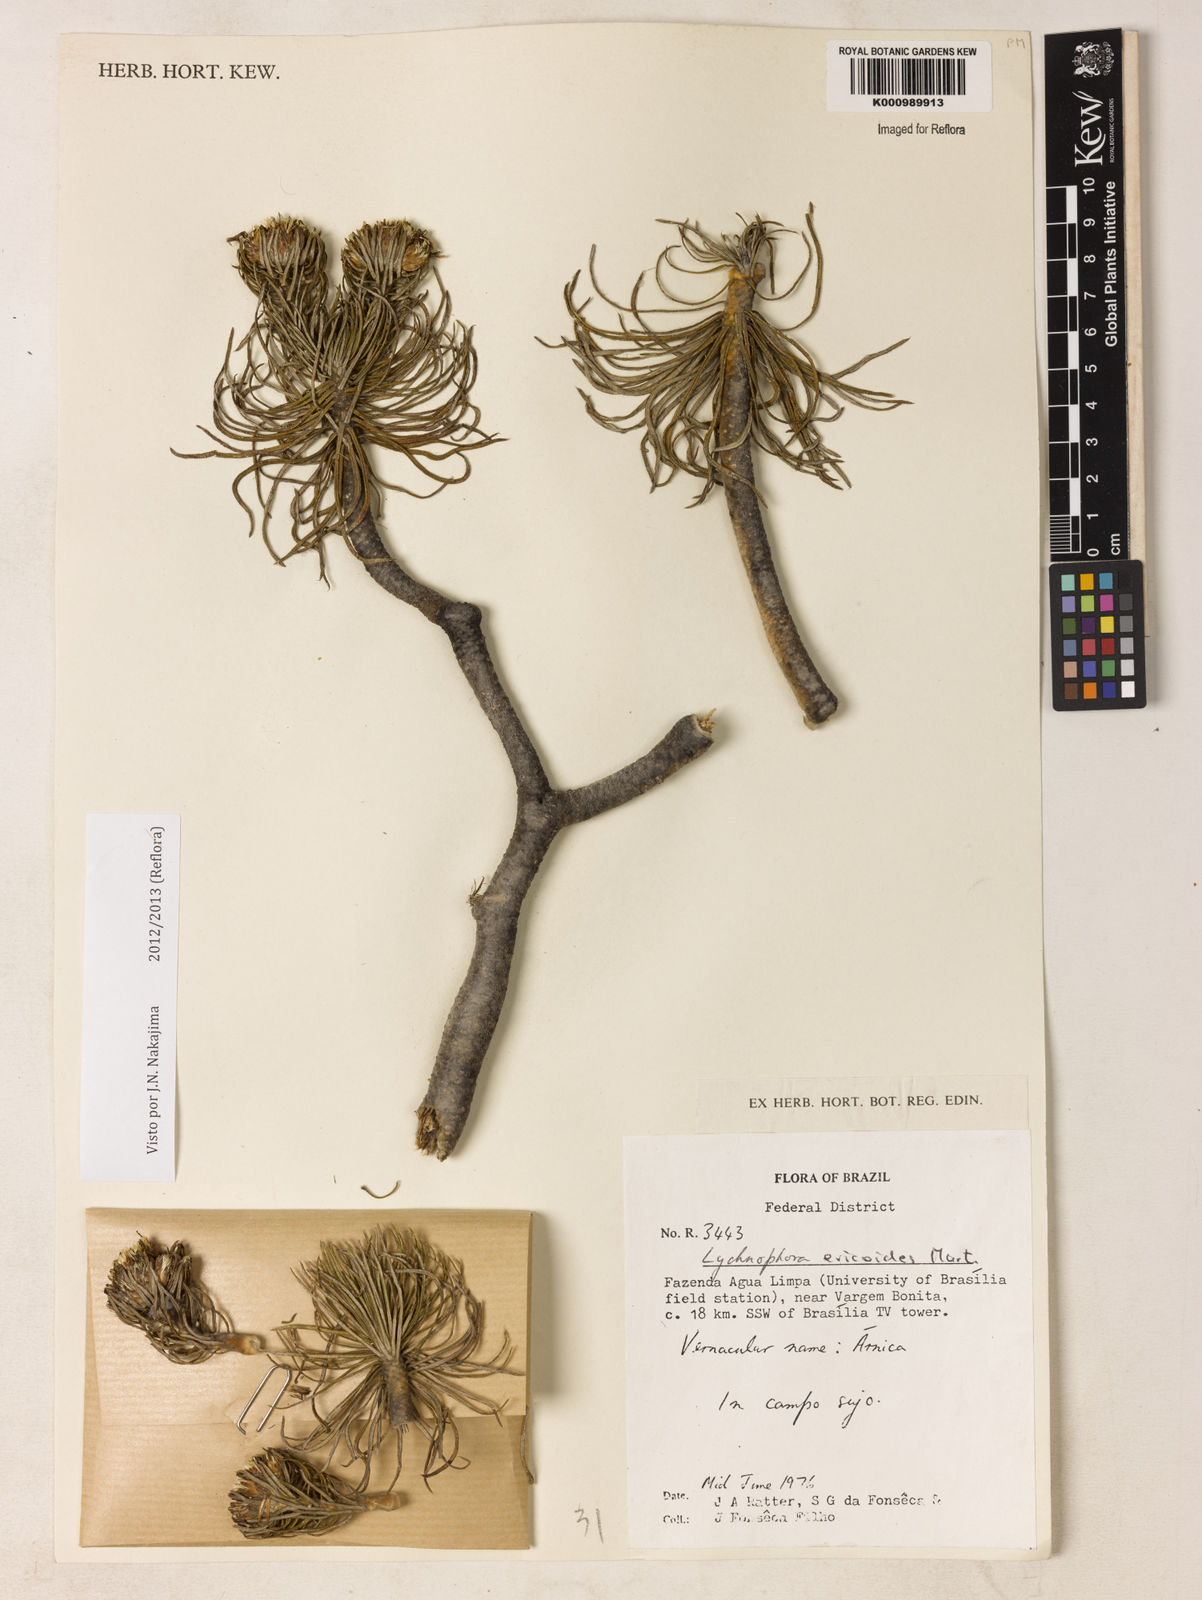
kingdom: Plantae
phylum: Tracheophyta
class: Magnoliopsida
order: Asterales
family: Asteraceae
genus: Lychnophora
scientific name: Lychnophora ericoides
